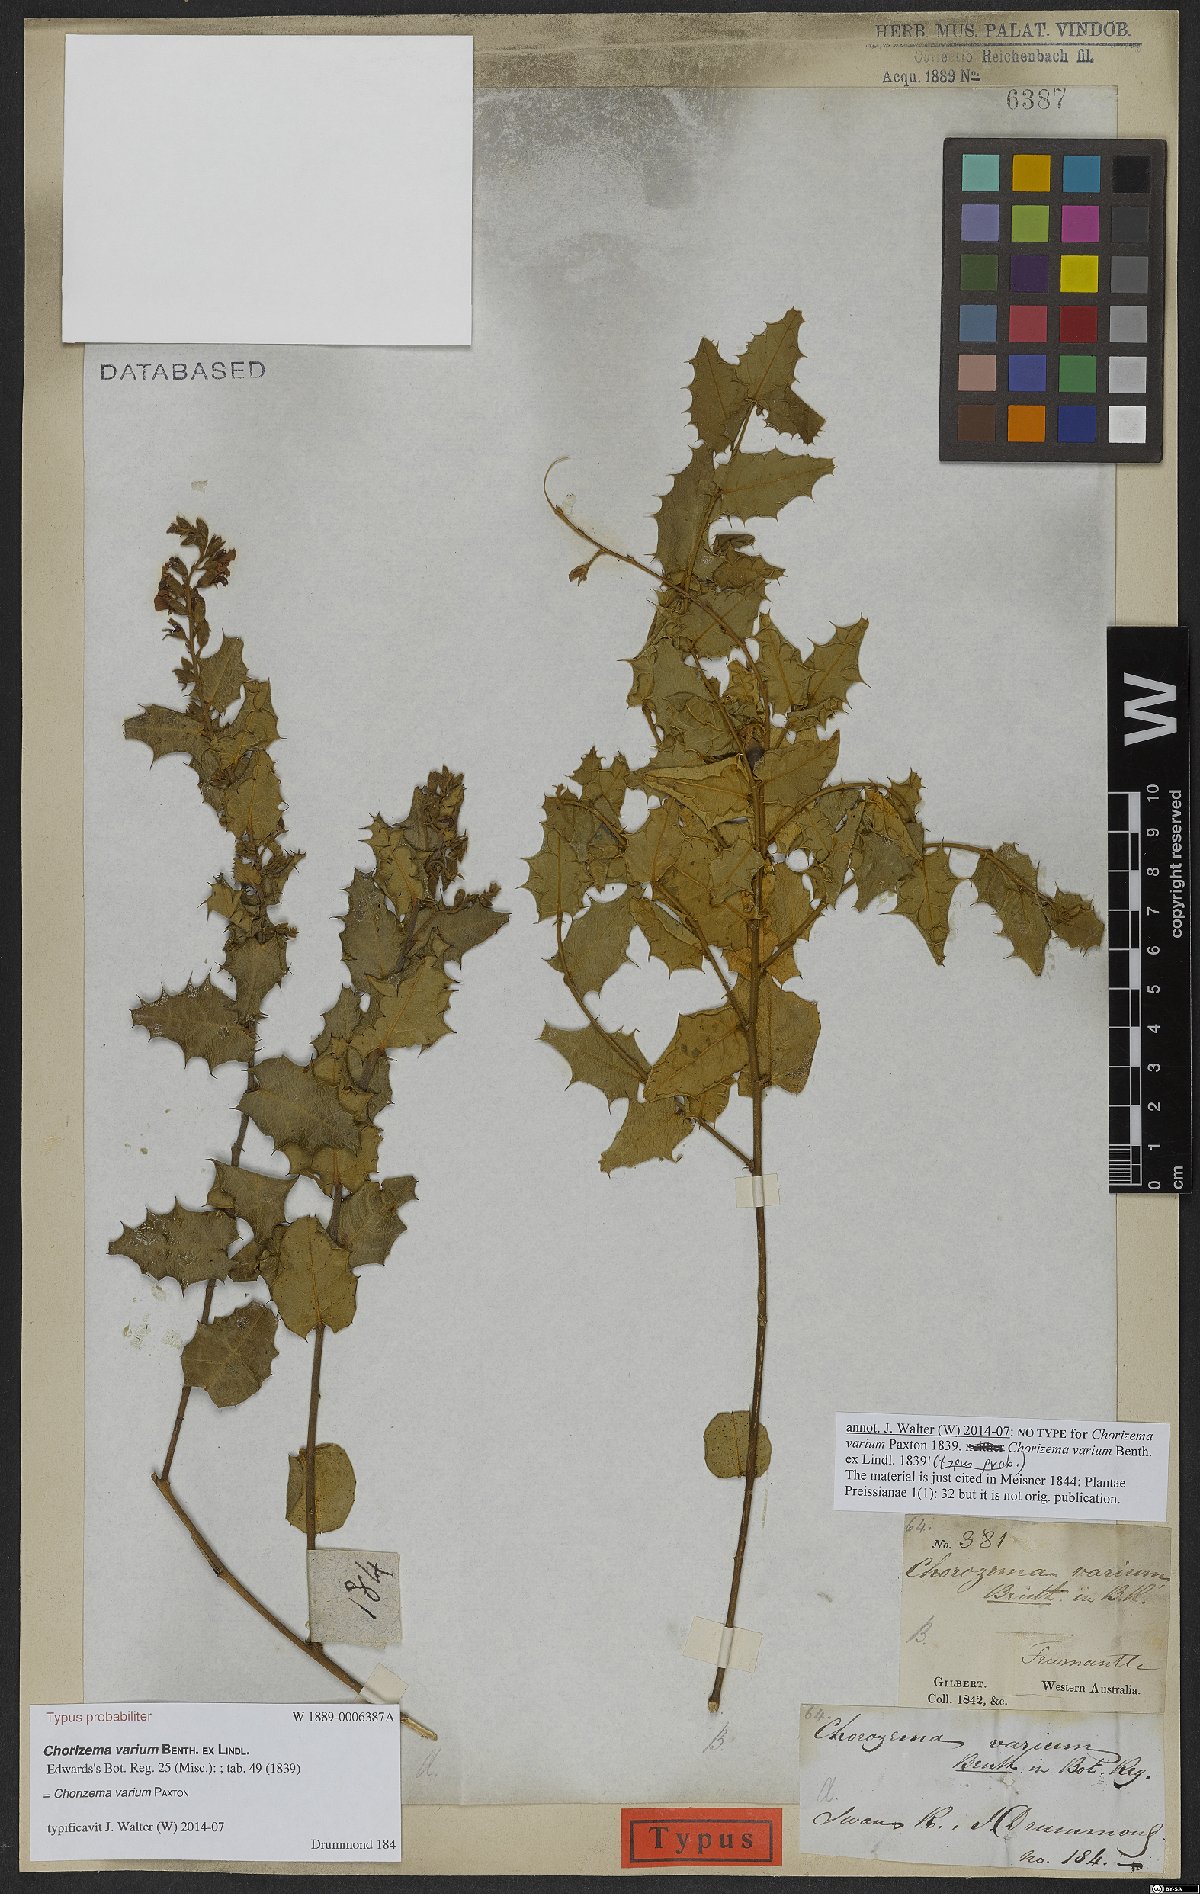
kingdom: Plantae
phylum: Tracheophyta
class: Magnoliopsida
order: Fabales
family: Fabaceae
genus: Chorizema
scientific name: Chorizema varium
